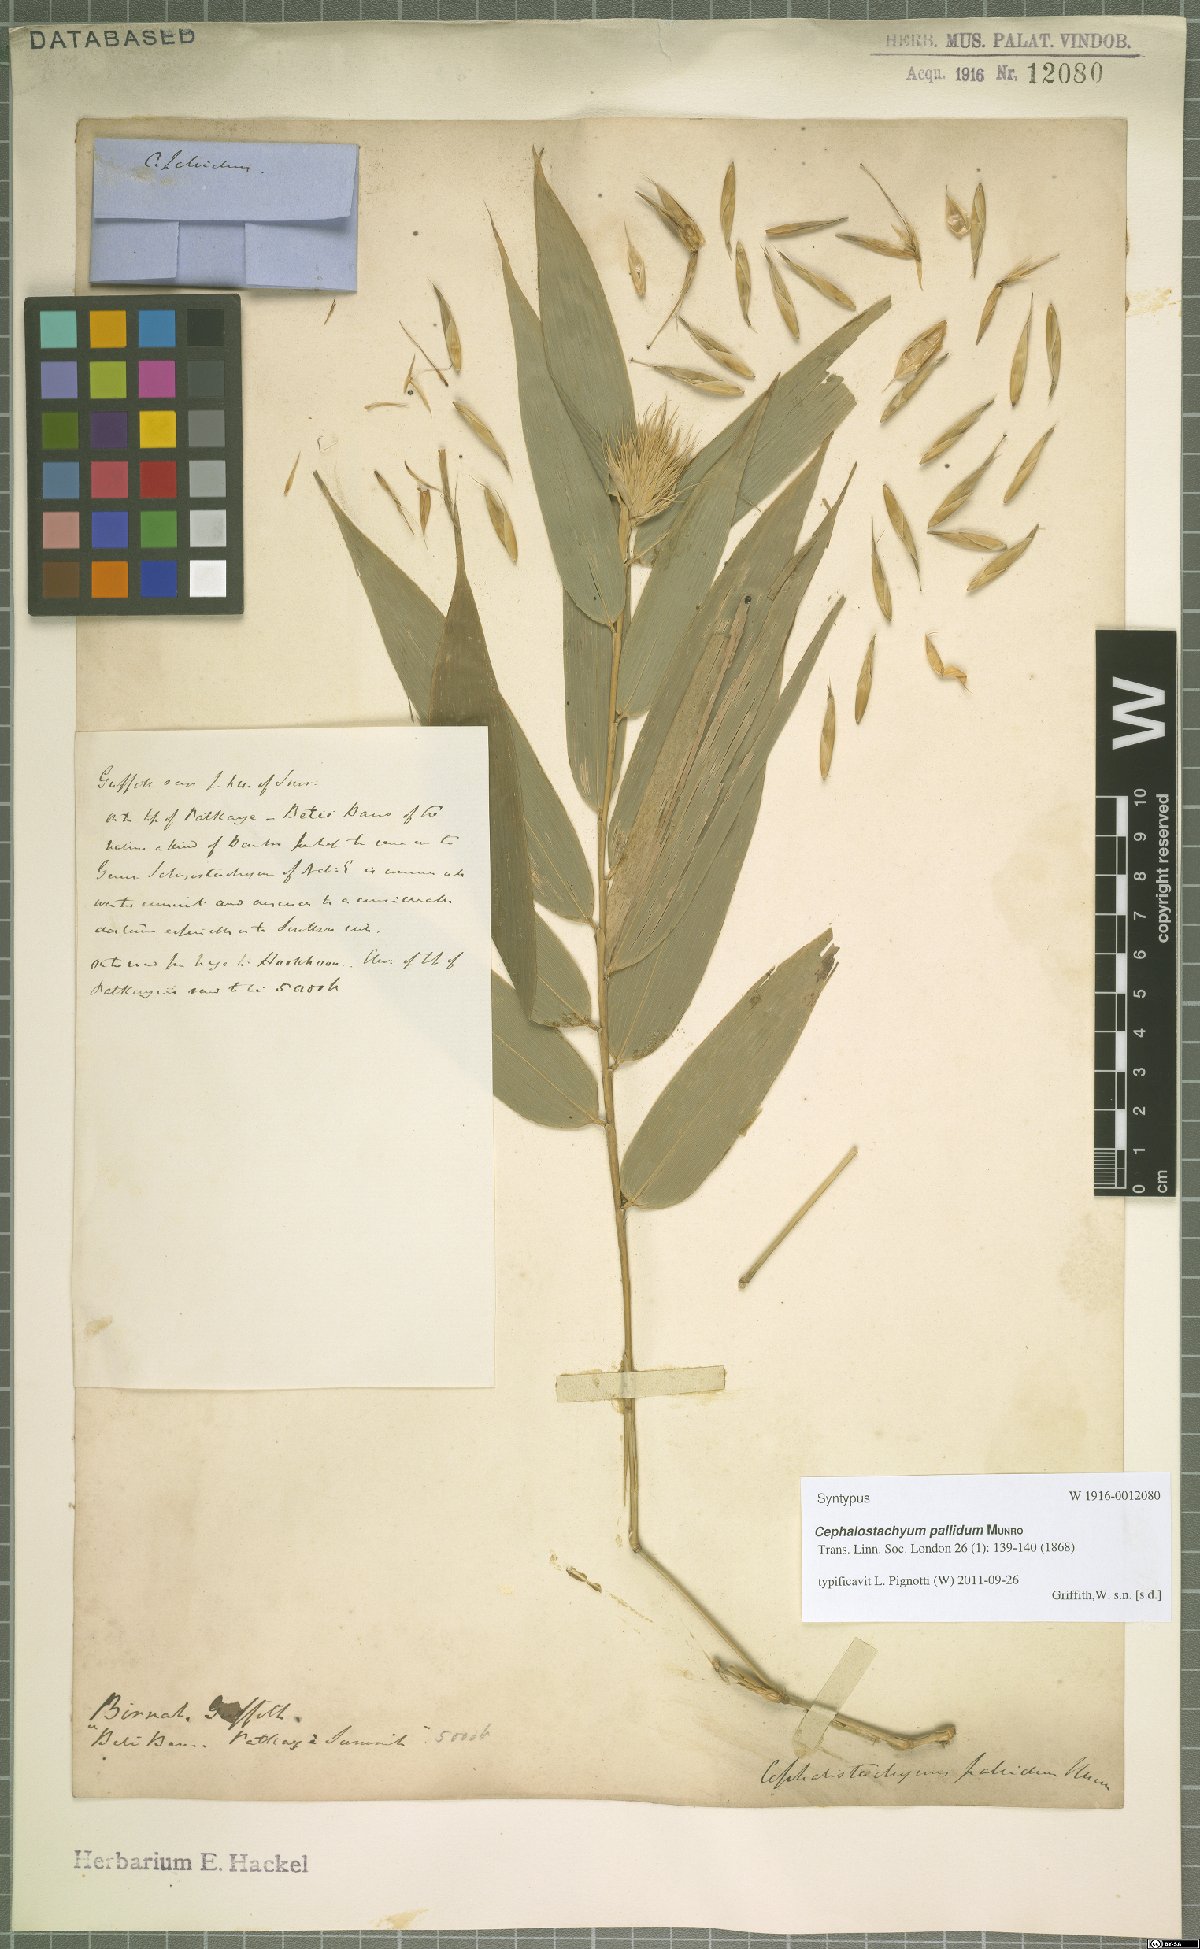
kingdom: Plantae
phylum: Tracheophyta
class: Liliopsida
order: Poales
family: Poaceae
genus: Cephalostachyum
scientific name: Cephalostachyum pallidum
